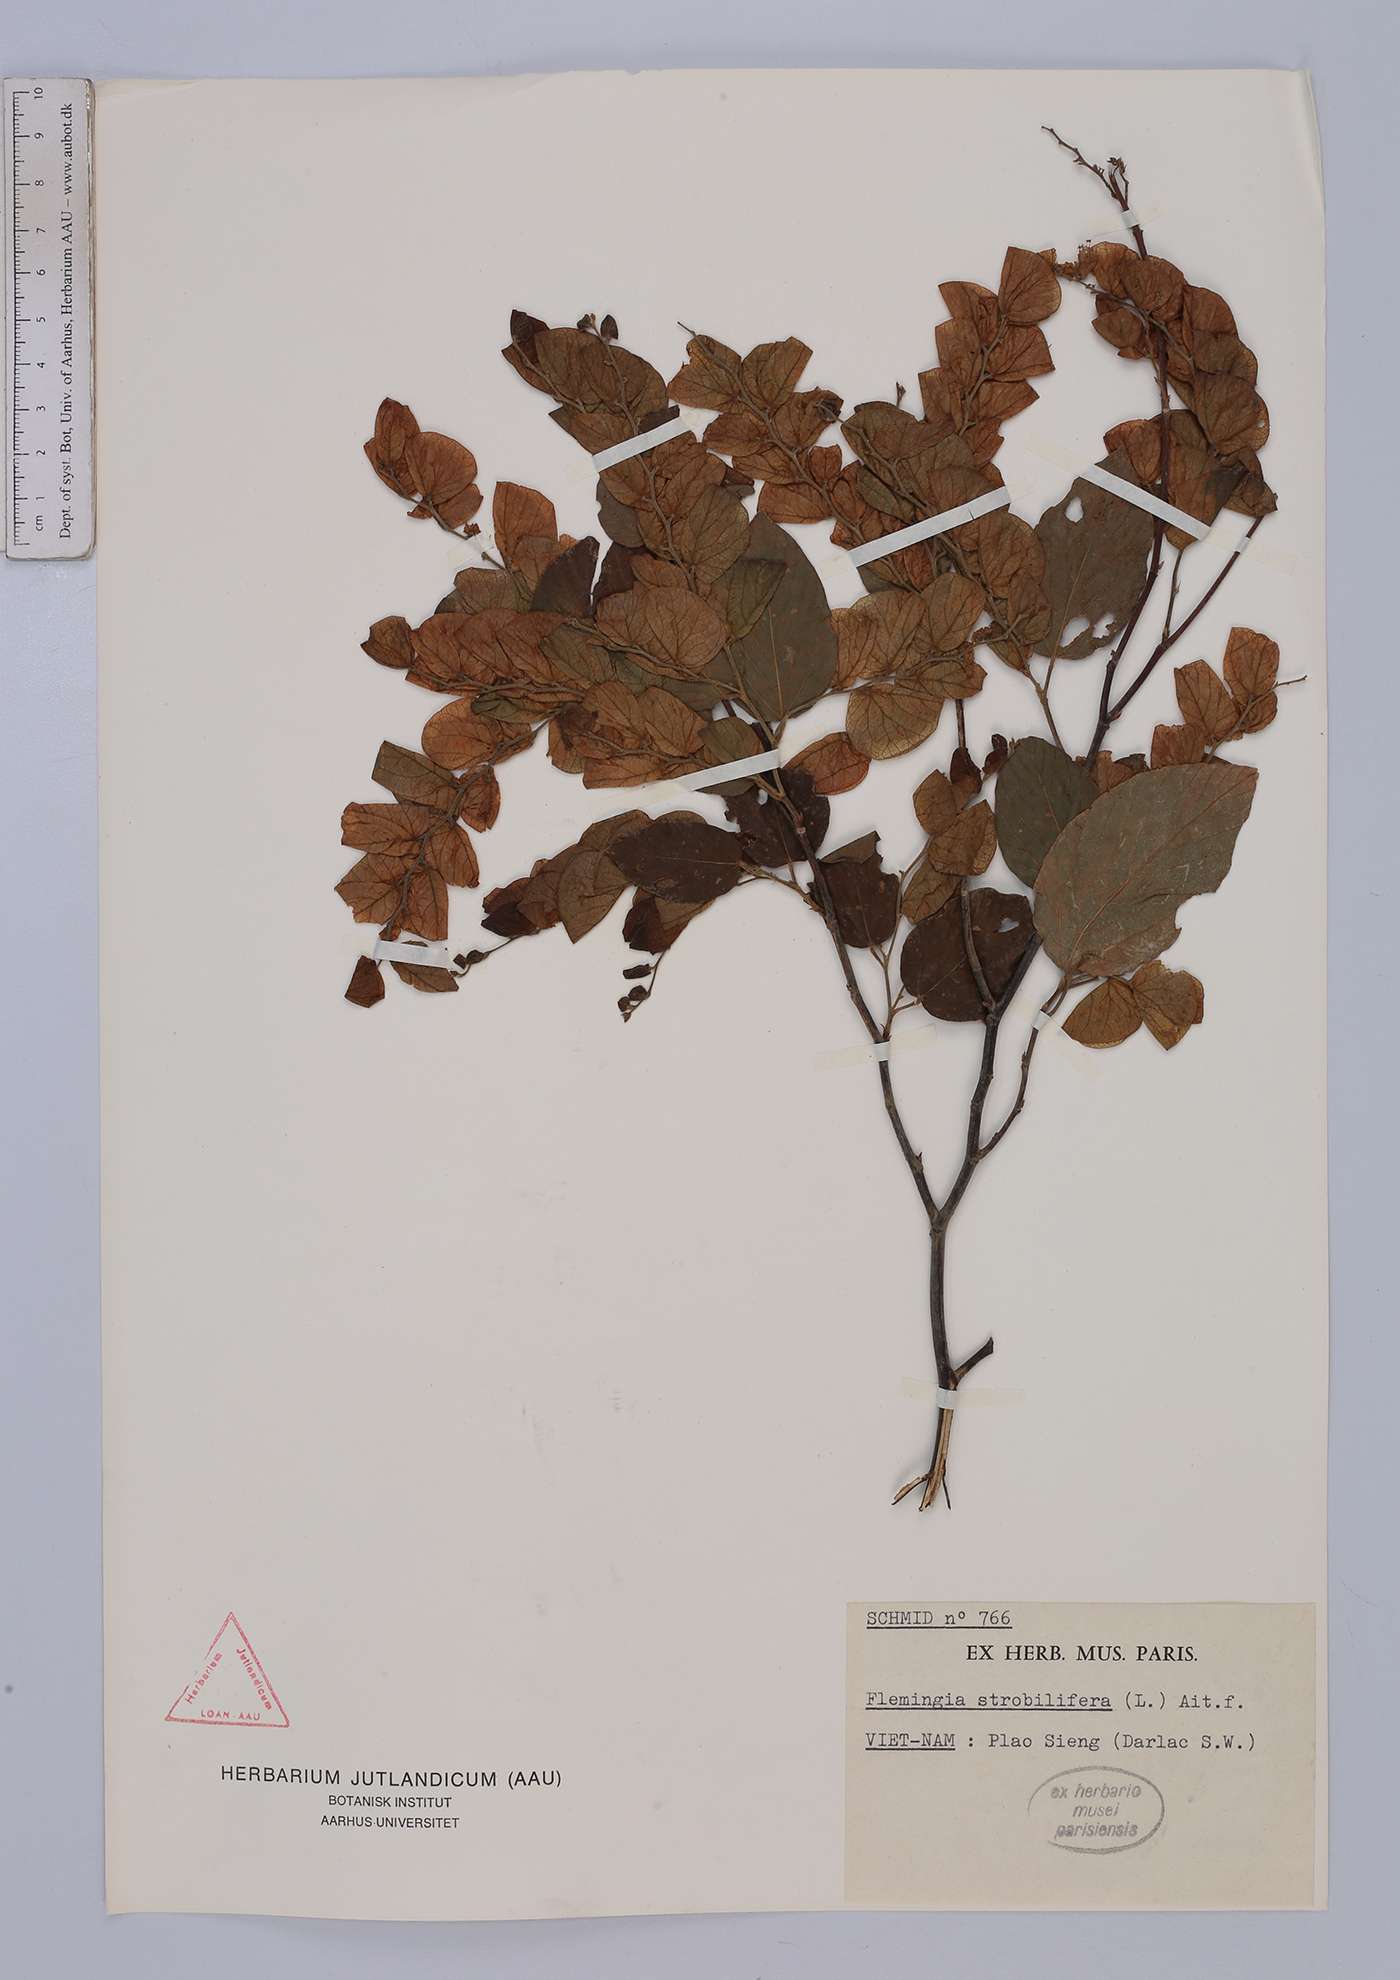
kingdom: Plantae
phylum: Tracheophyta
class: Magnoliopsida
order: Fabales
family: Fabaceae
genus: Flemingia
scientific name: Flemingia strobilifera
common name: Wild hops
